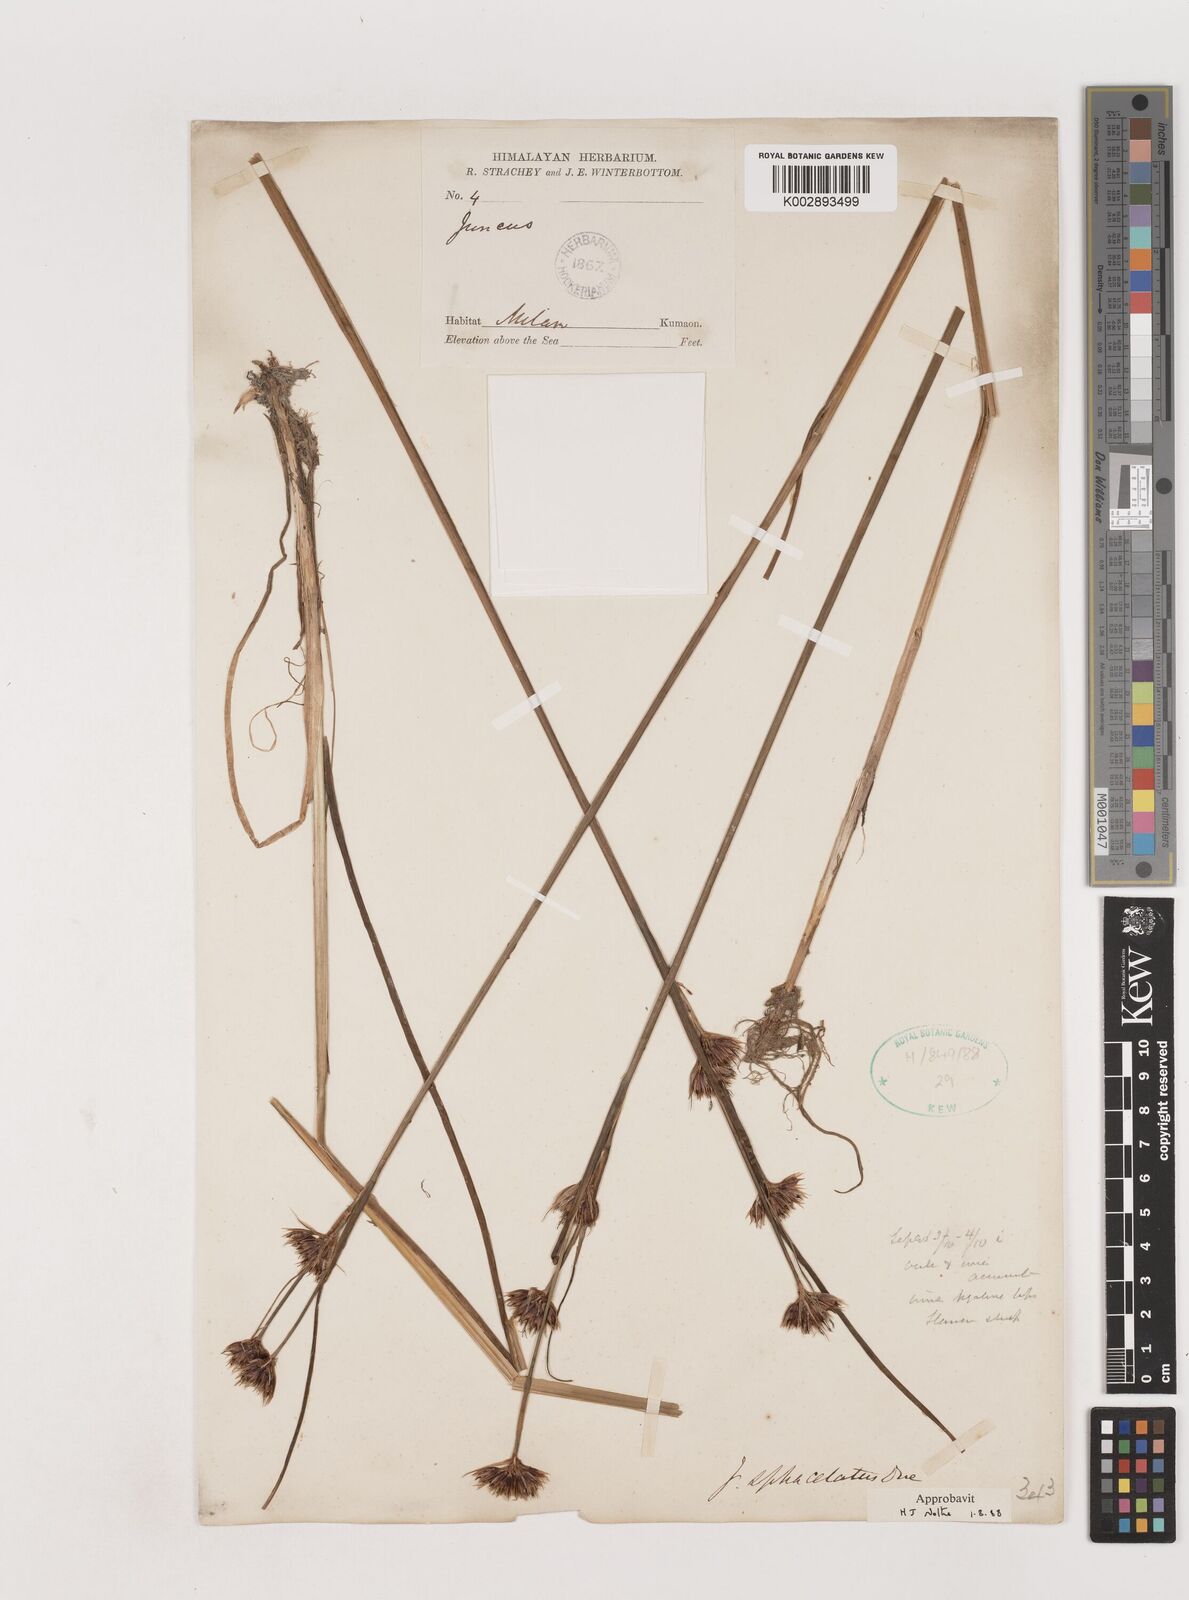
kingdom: Plantae
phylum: Tracheophyta
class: Liliopsida
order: Poales
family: Juncaceae
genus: Juncus
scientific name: Juncus sphacelatus
